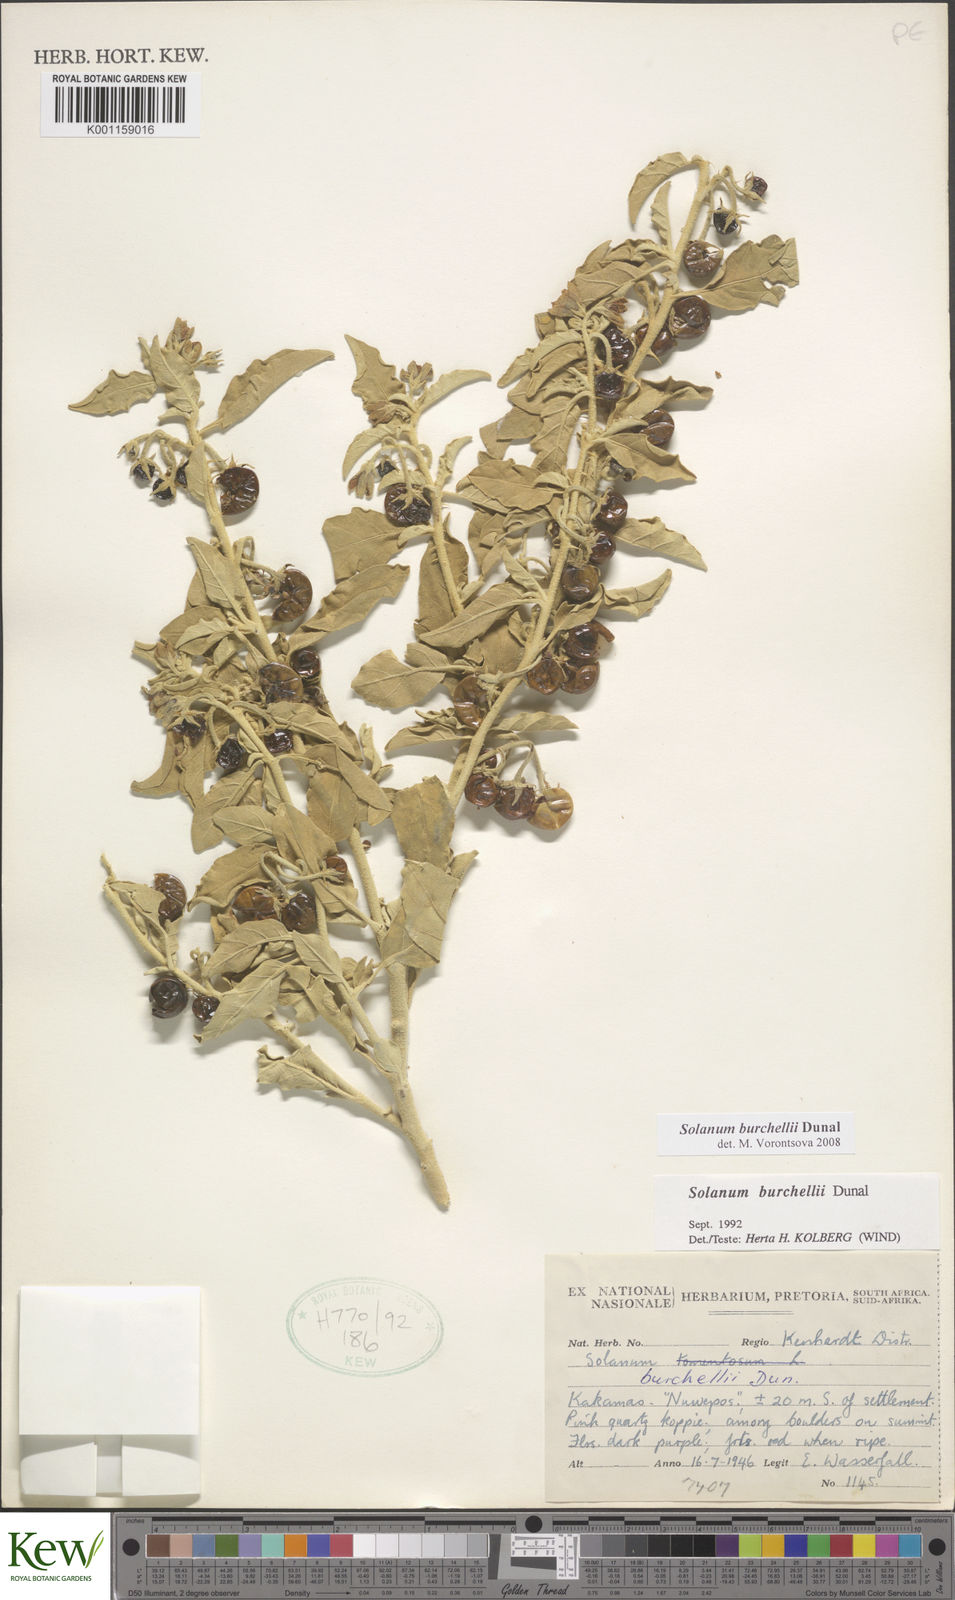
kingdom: Plantae
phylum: Tracheophyta
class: Magnoliopsida
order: Solanales
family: Solanaceae
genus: Solanum
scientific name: Solanum burchellii
